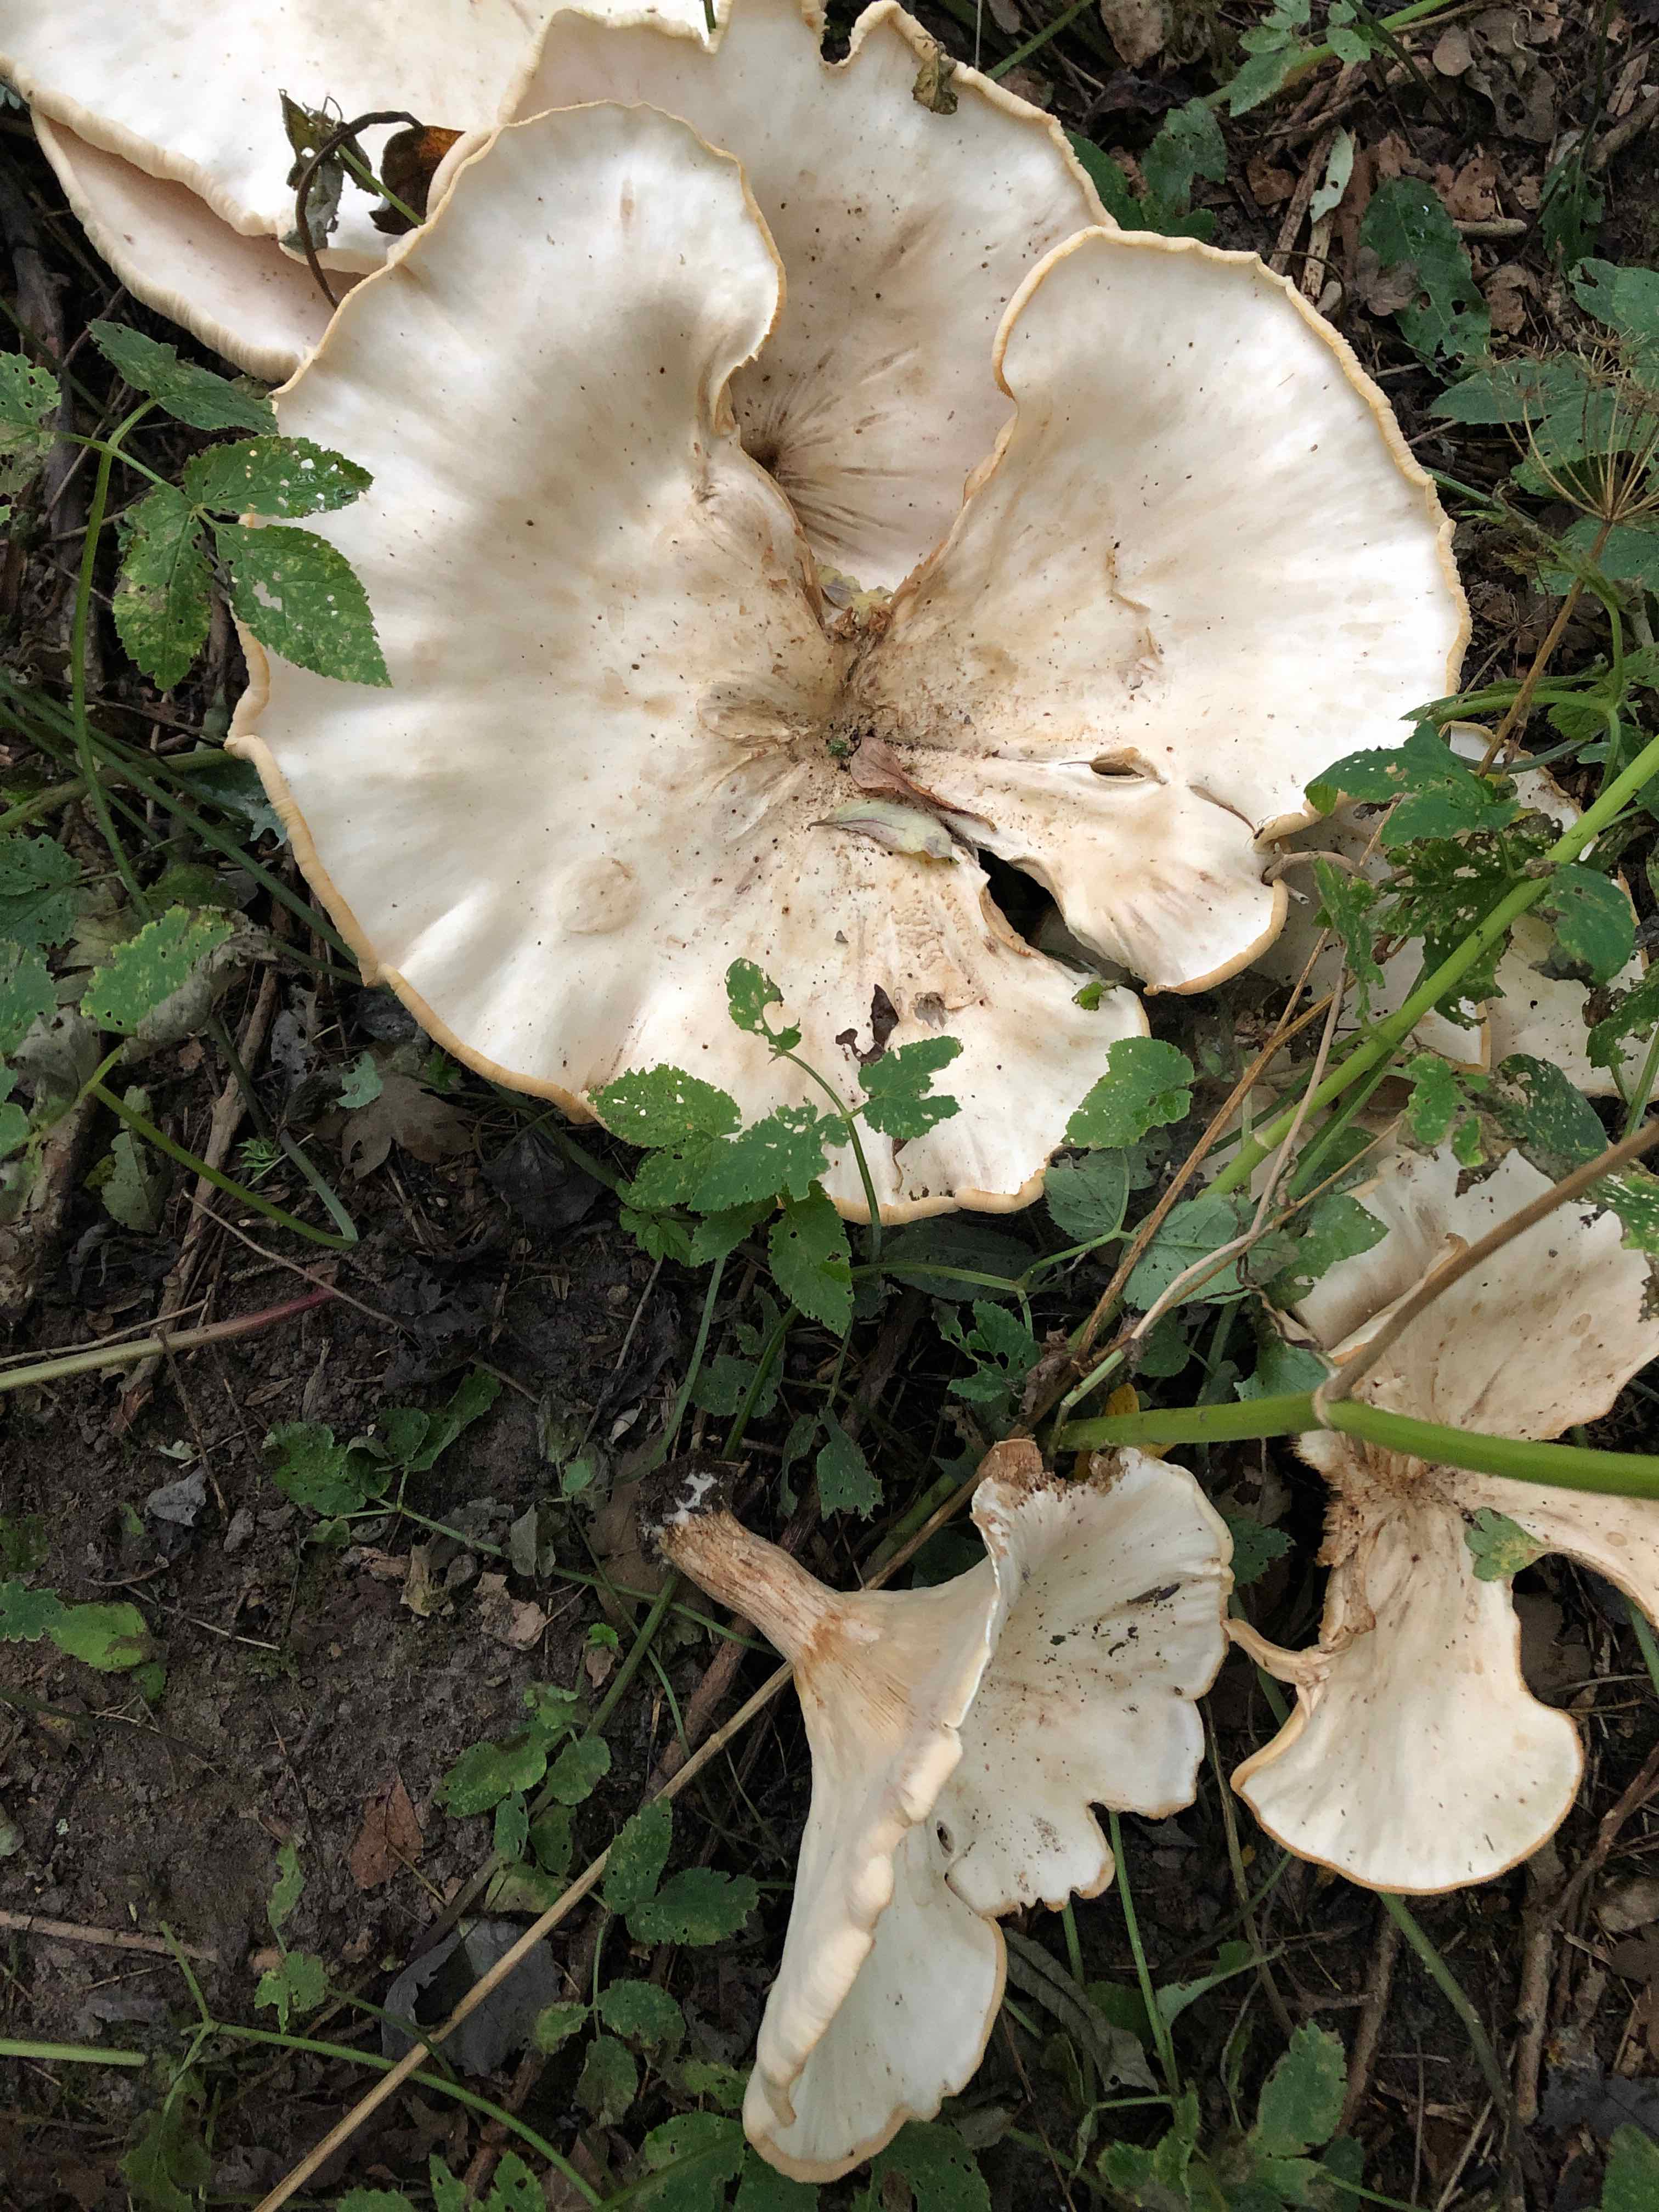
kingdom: Fungi
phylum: Basidiomycota
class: Agaricomycetes
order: Agaricales
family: Tricholomataceae
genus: Aspropaxillus
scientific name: Aspropaxillus giganteus
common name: kæmpe-tragtridderhat
